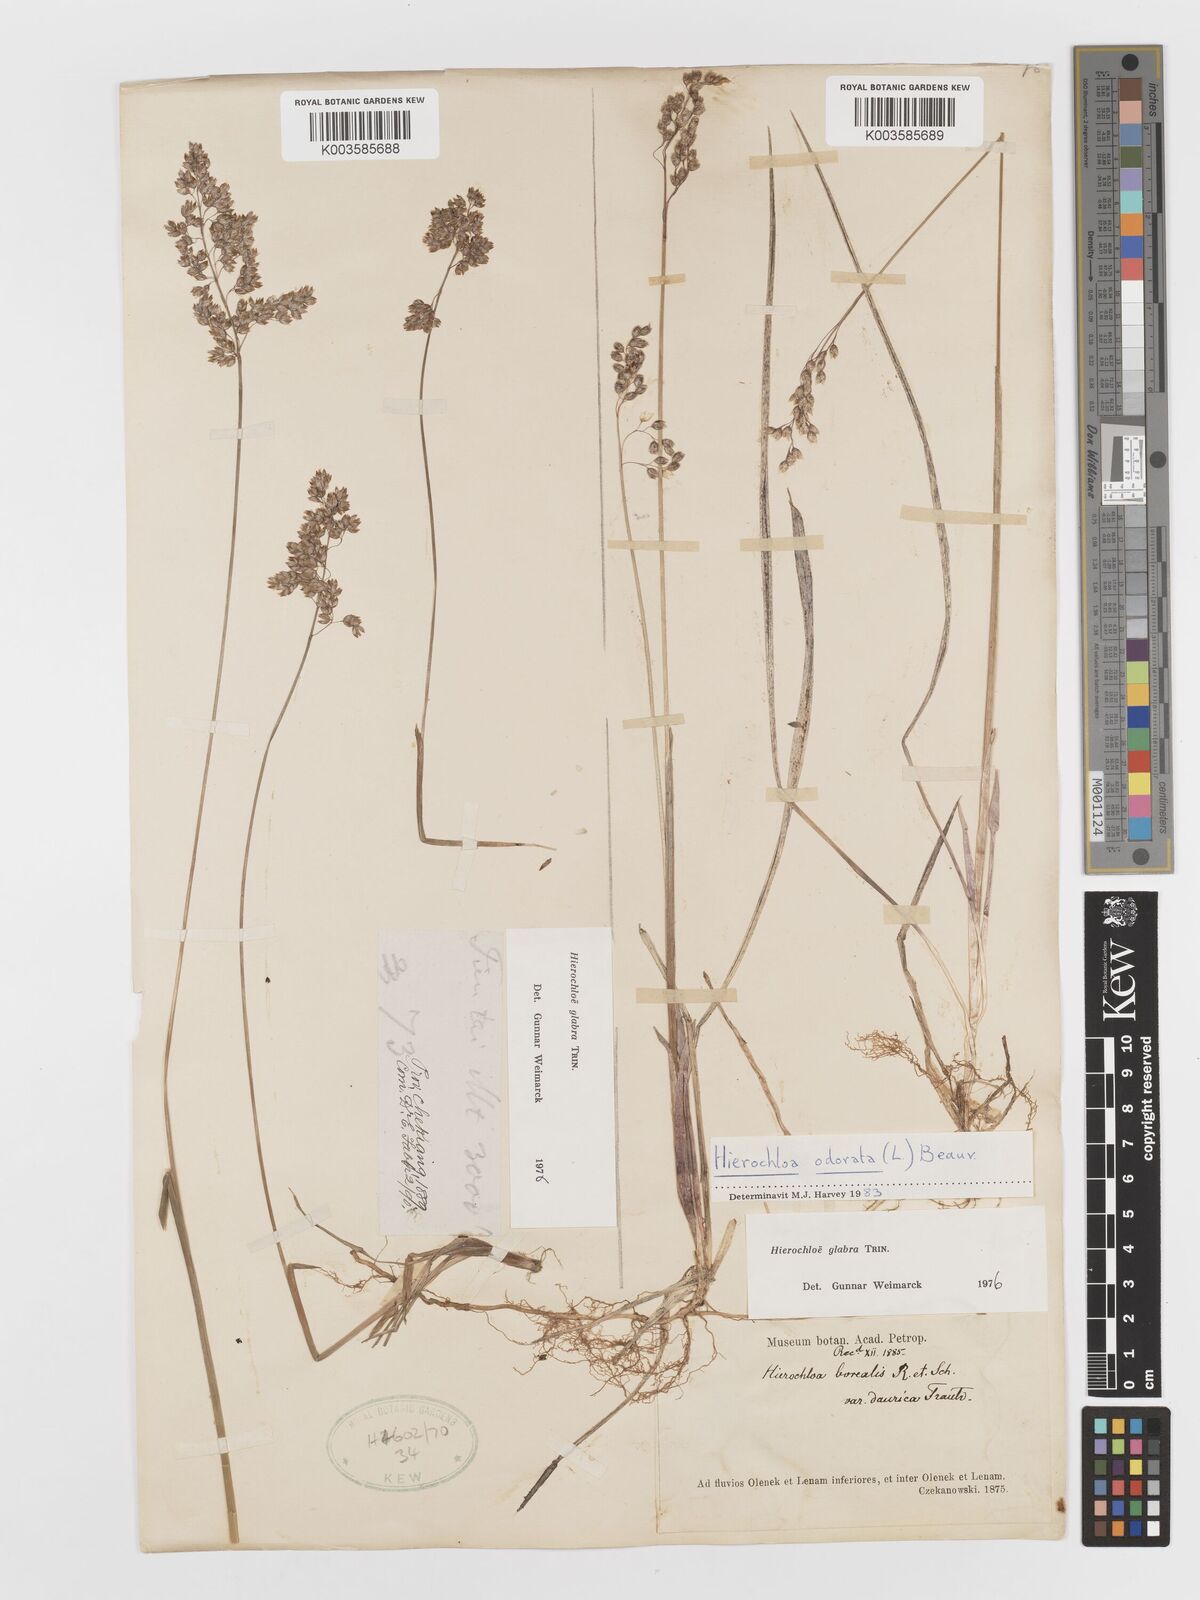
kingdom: Plantae
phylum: Tracheophyta
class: Liliopsida
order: Poales
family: Poaceae
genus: Anthoxanthum
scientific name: Anthoxanthum glabrum
